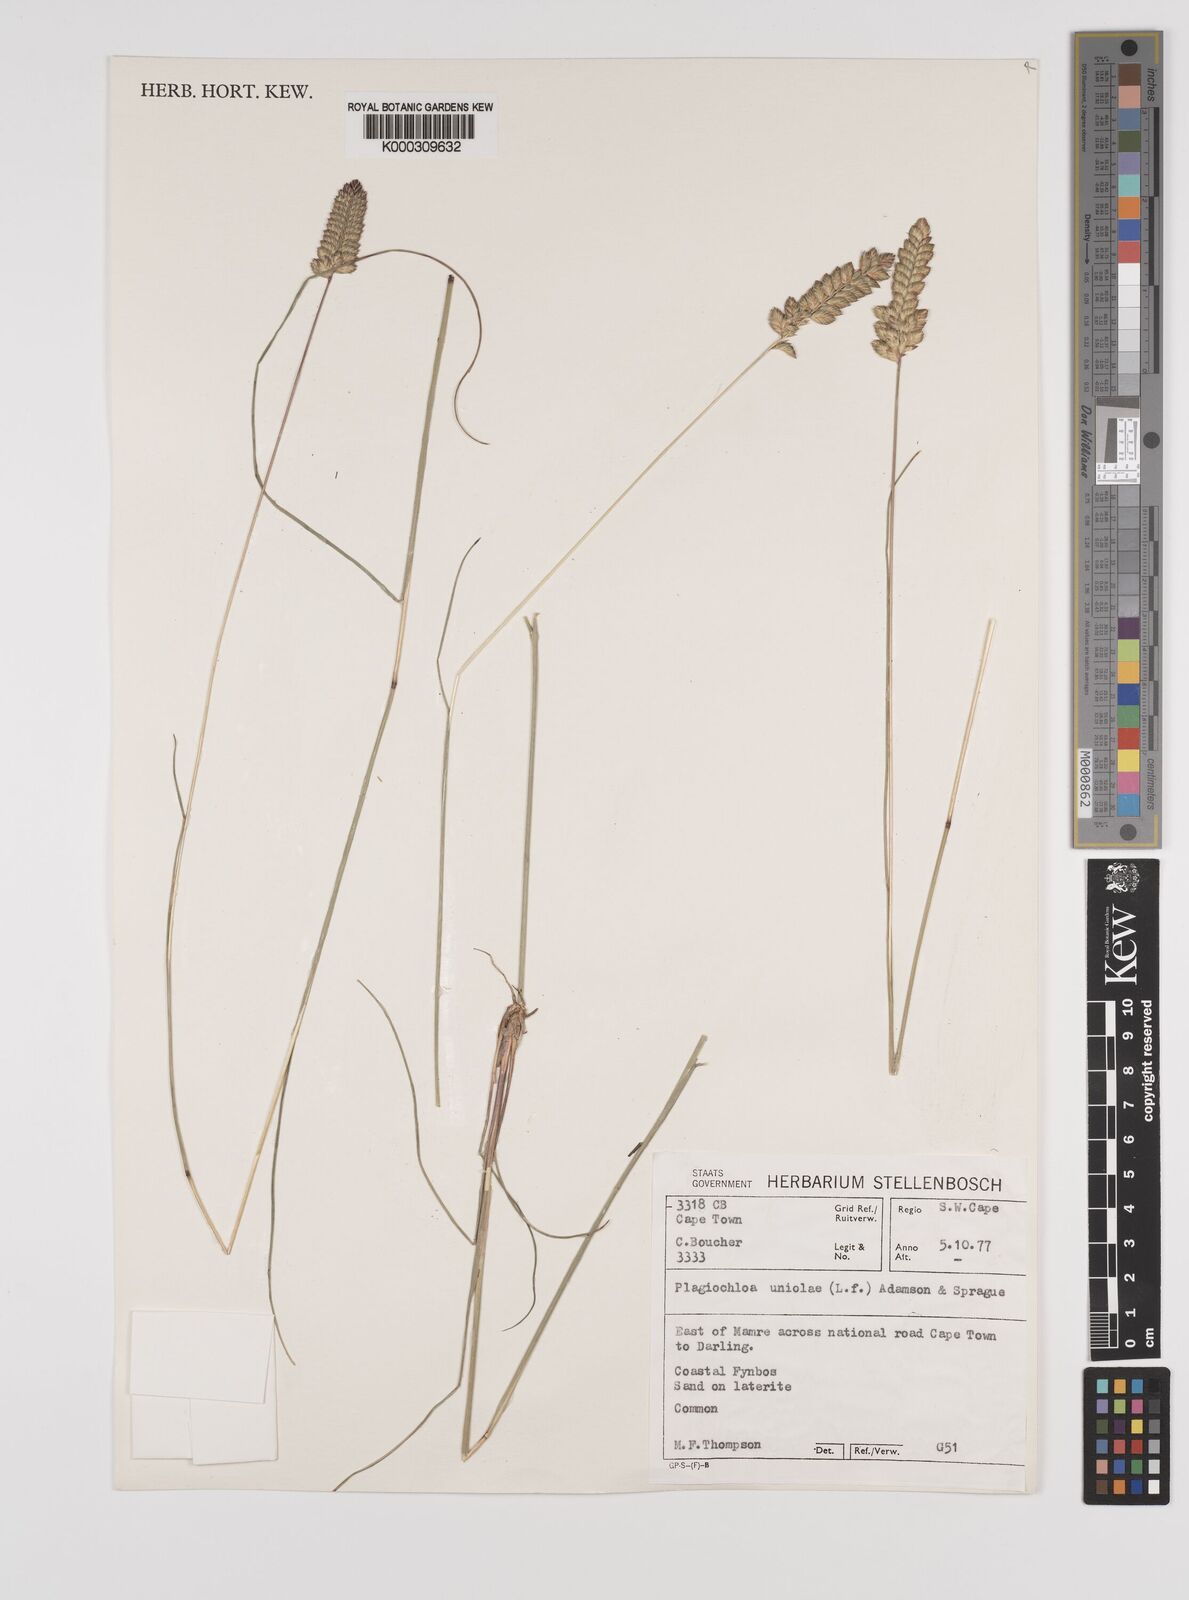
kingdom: Plantae
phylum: Tracheophyta
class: Liliopsida
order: Poales
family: Poaceae
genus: Tribolium
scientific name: Tribolium uniolae
